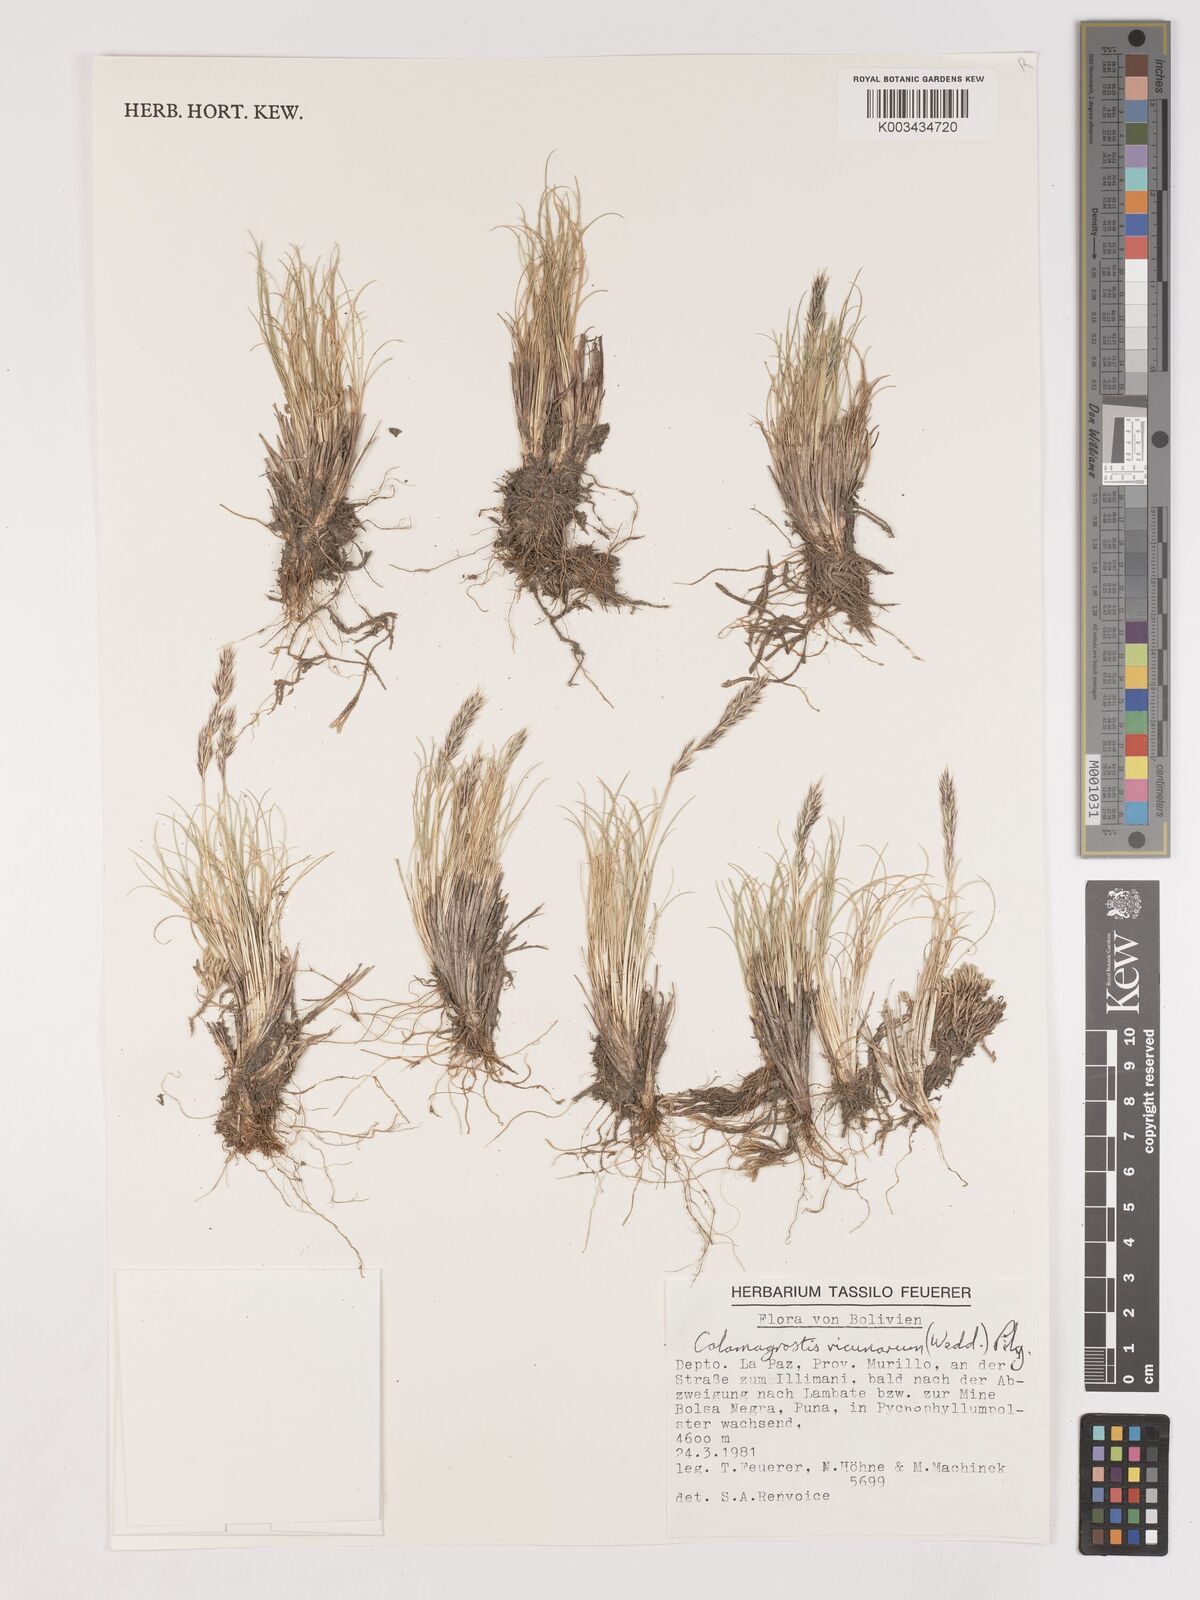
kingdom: Plantae
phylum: Tracheophyta
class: Liliopsida
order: Poales
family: Poaceae
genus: Cinnagrostis
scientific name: Cinnagrostis vicunarum
